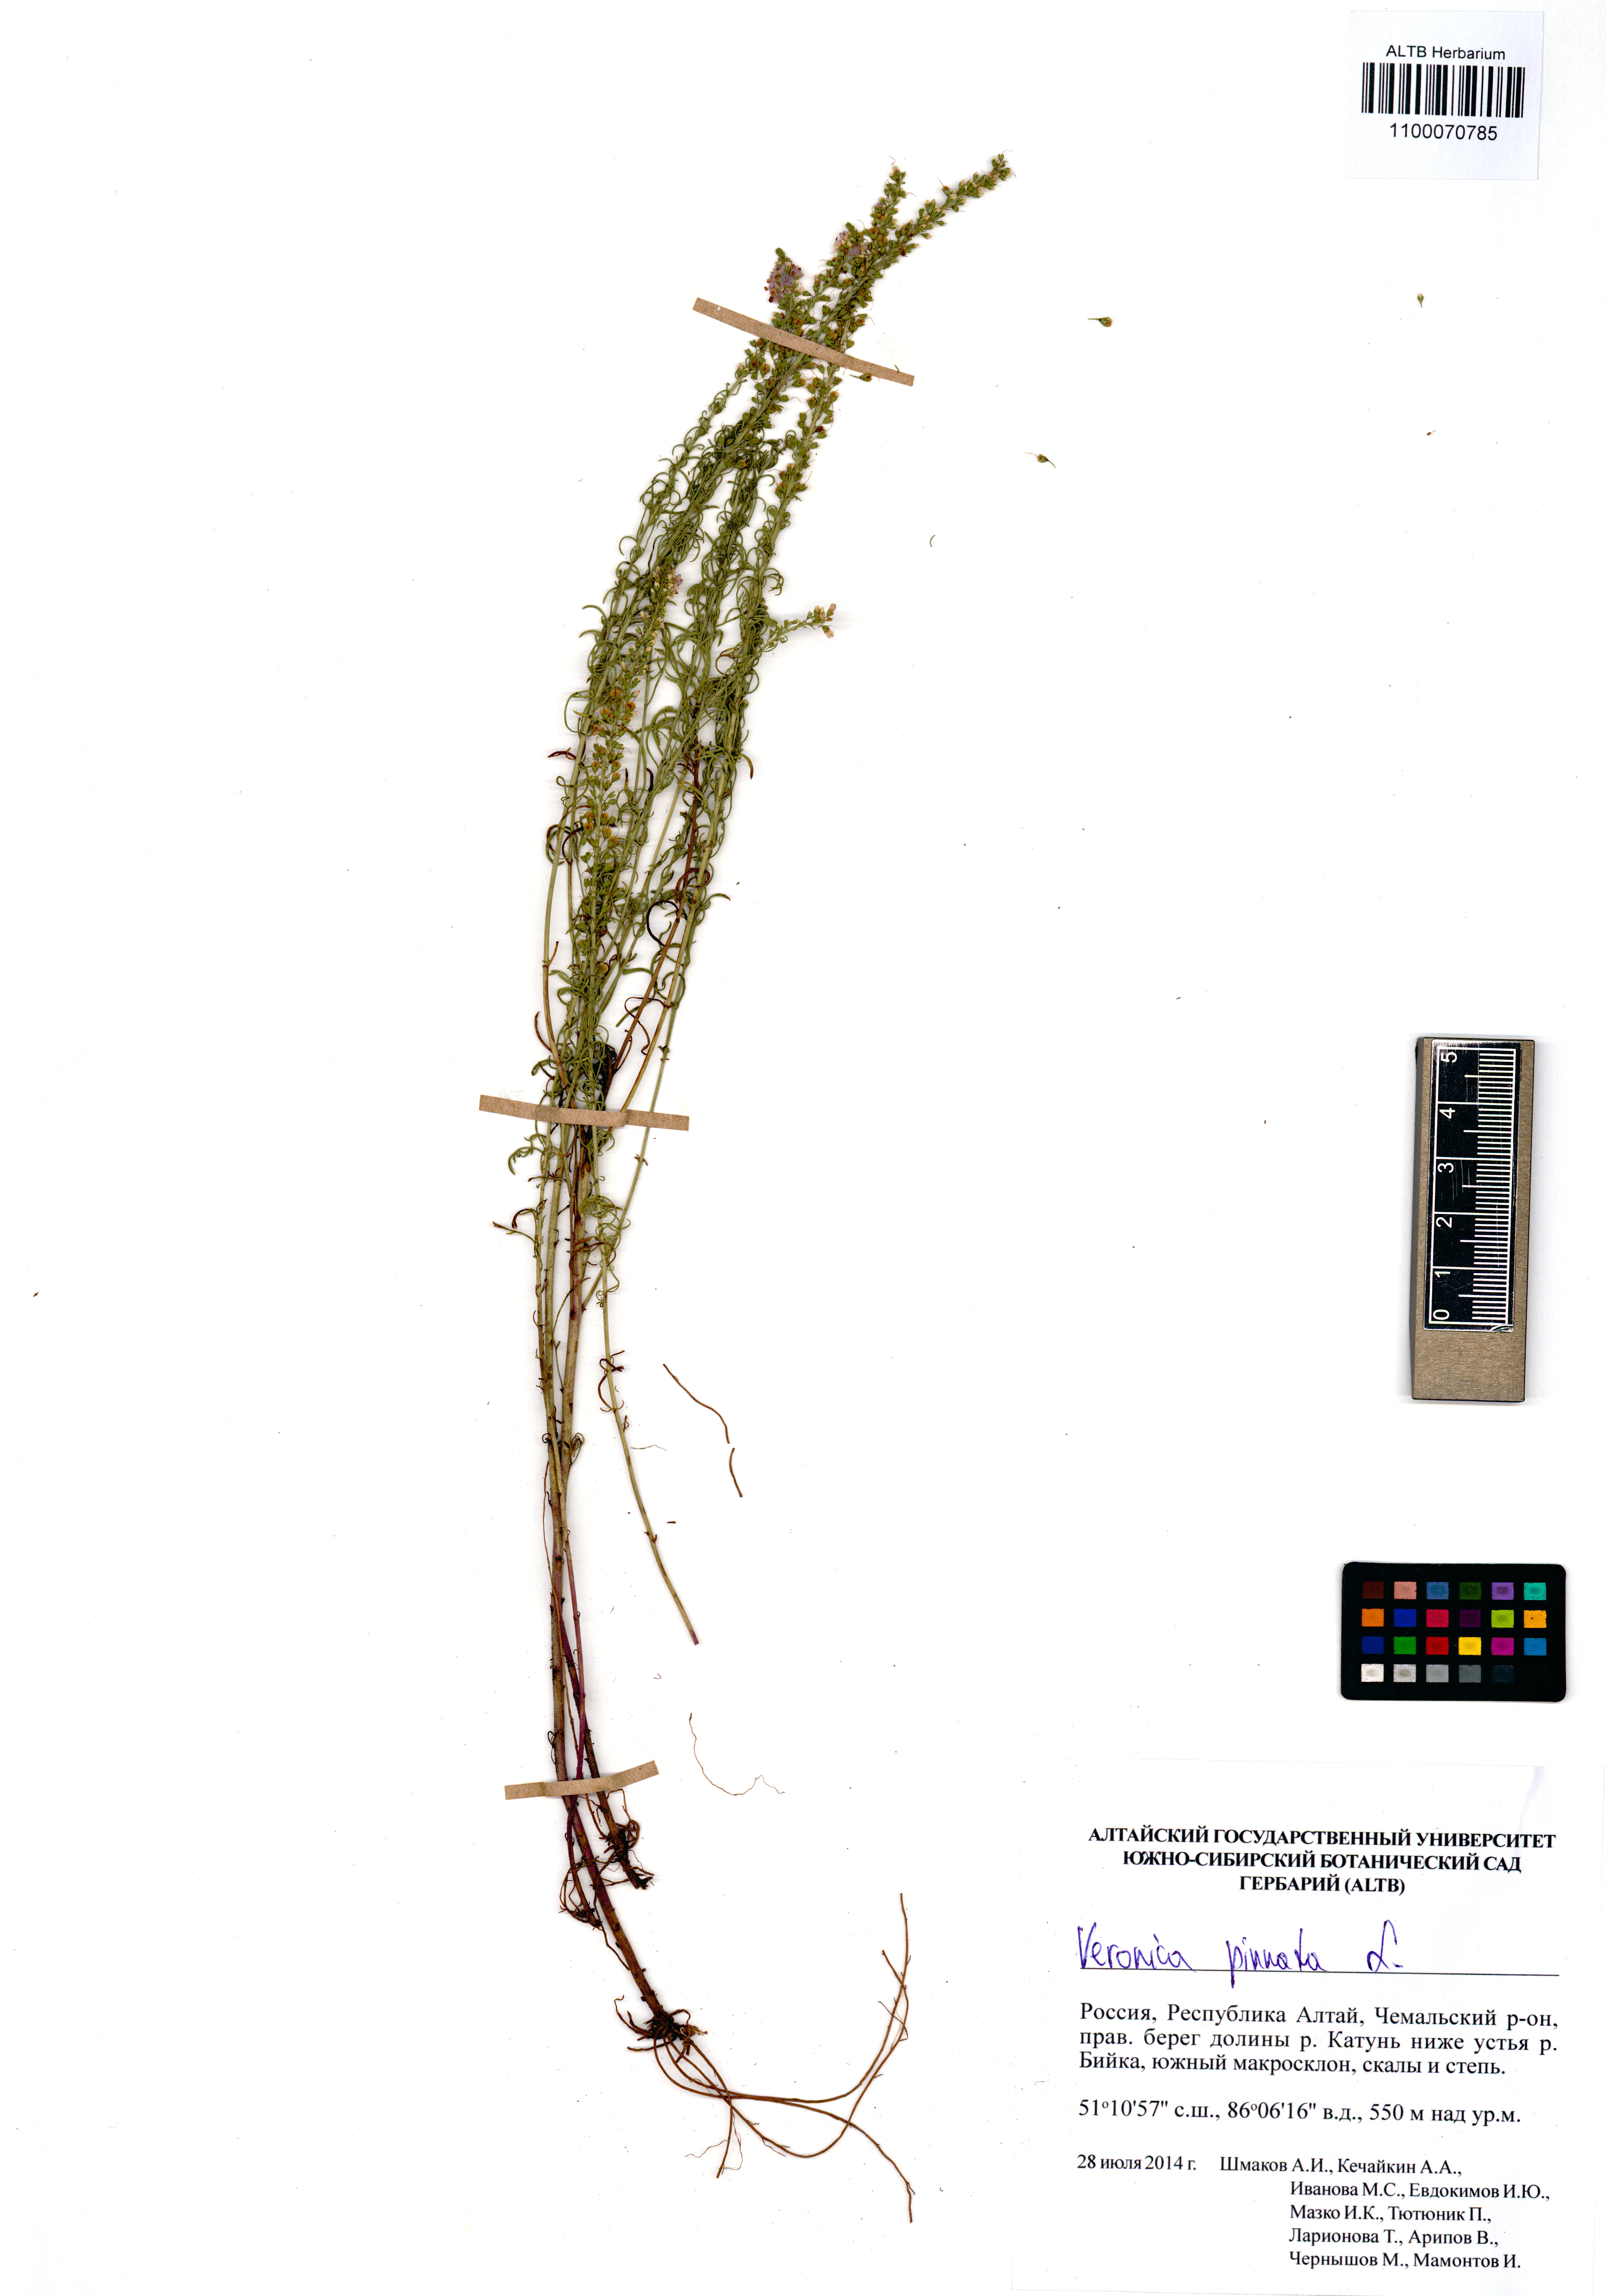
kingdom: Plantae
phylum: Tracheophyta
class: Magnoliopsida
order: Lamiales
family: Plantaginaceae
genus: Veronica
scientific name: Veronica pinnata
